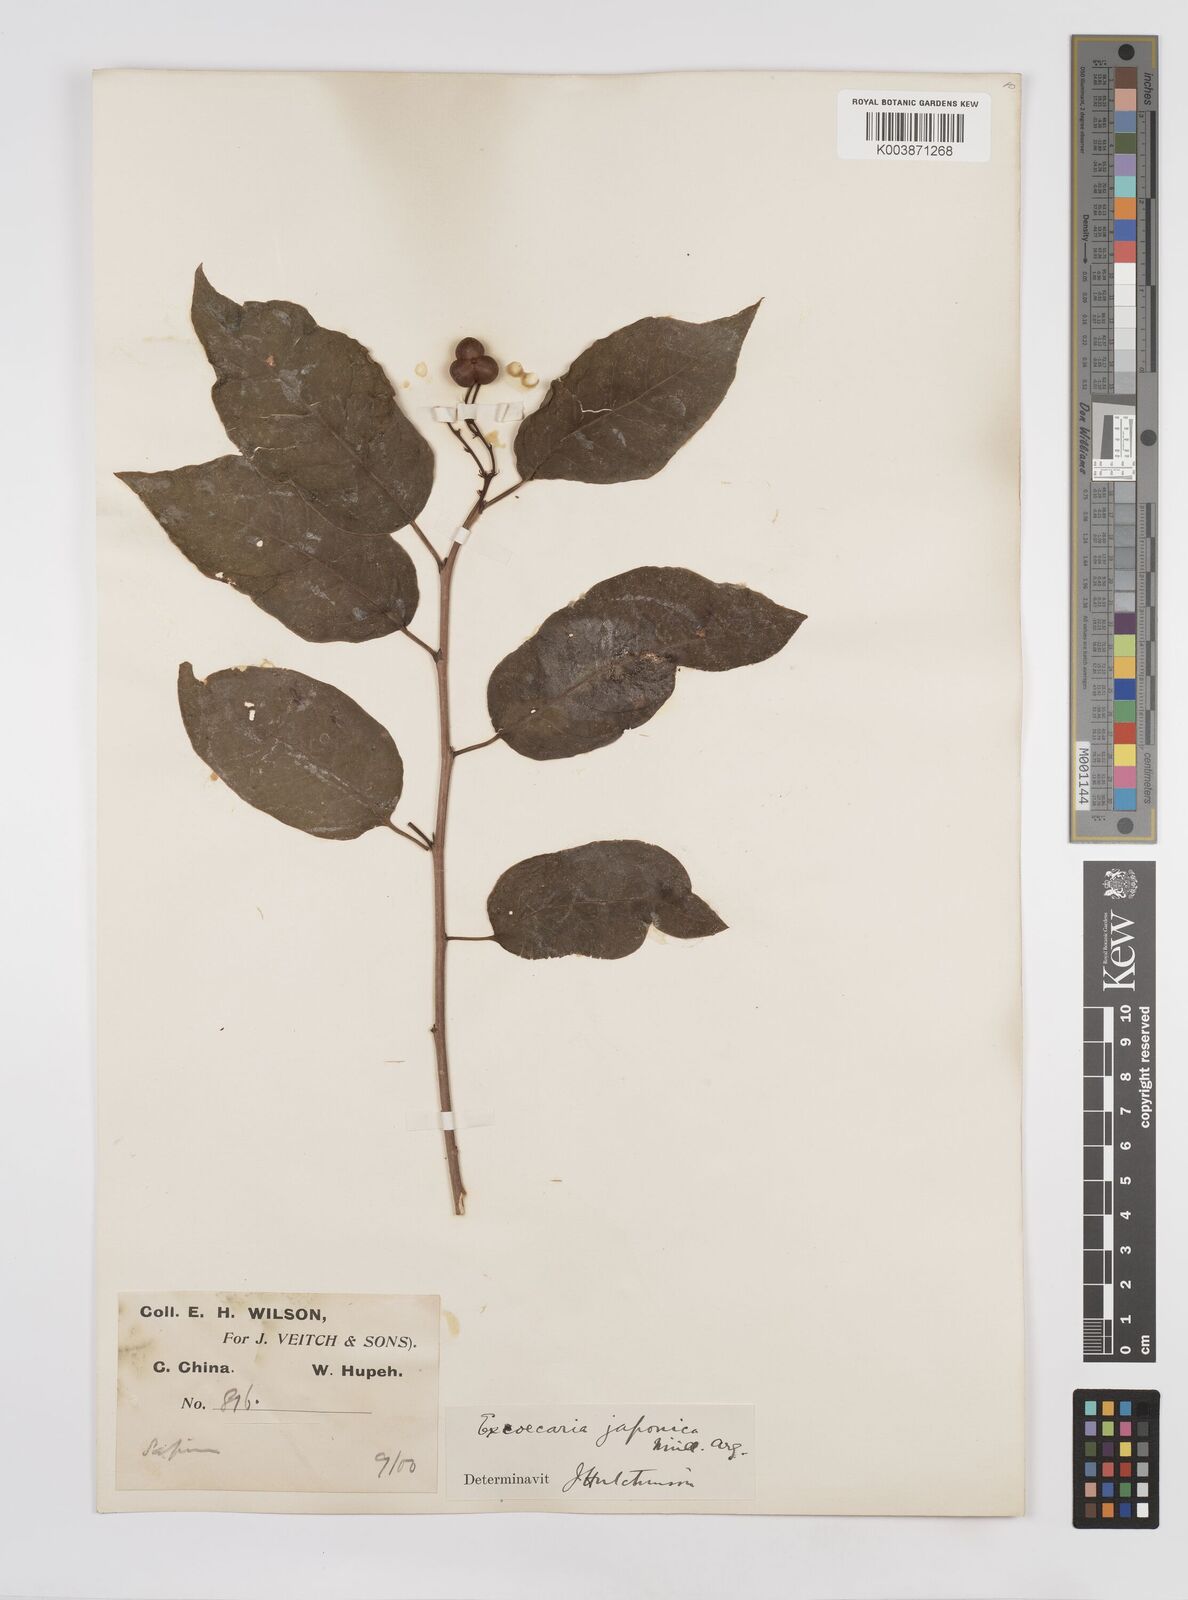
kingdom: Plantae
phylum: Tracheophyta
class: Magnoliopsida
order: Malpighiales
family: Euphorbiaceae
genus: Neoshirakia
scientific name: Neoshirakia japonica
